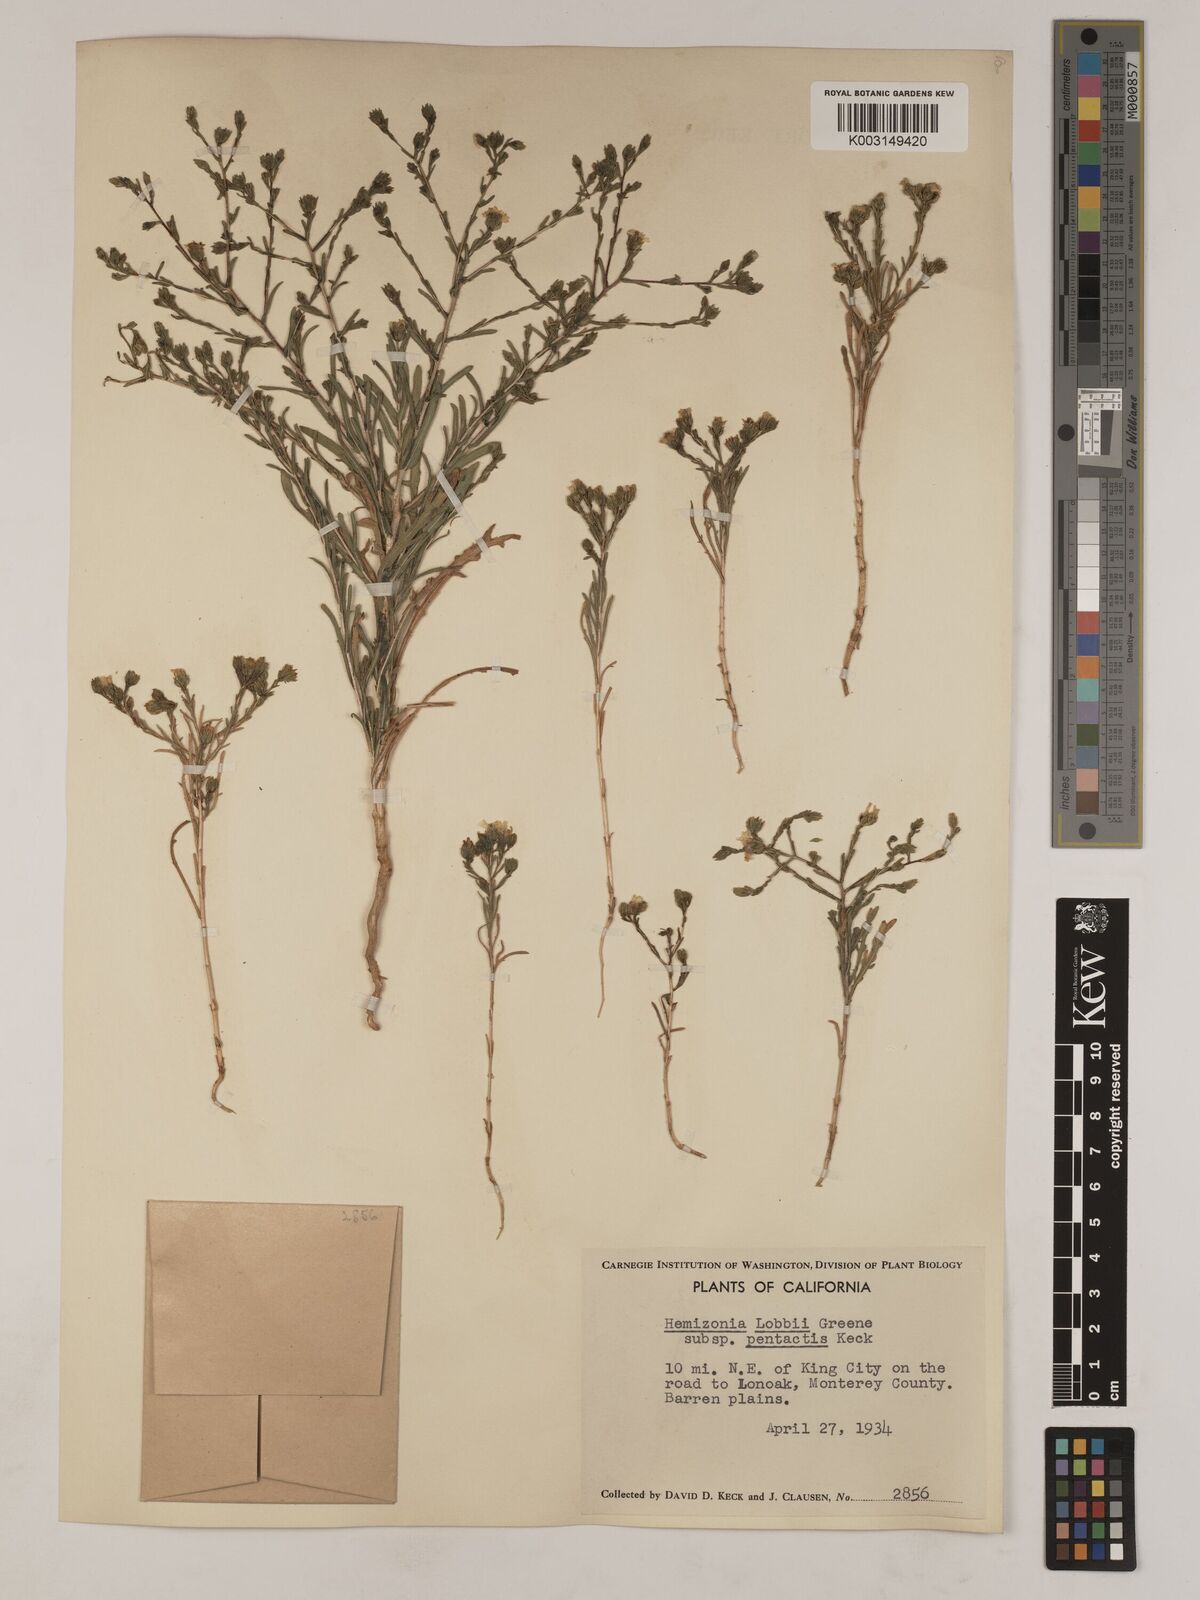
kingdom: Plantae
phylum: Tracheophyta
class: Magnoliopsida
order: Asterales
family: Asteraceae
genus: Deinandra
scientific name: Deinandra pentactis
